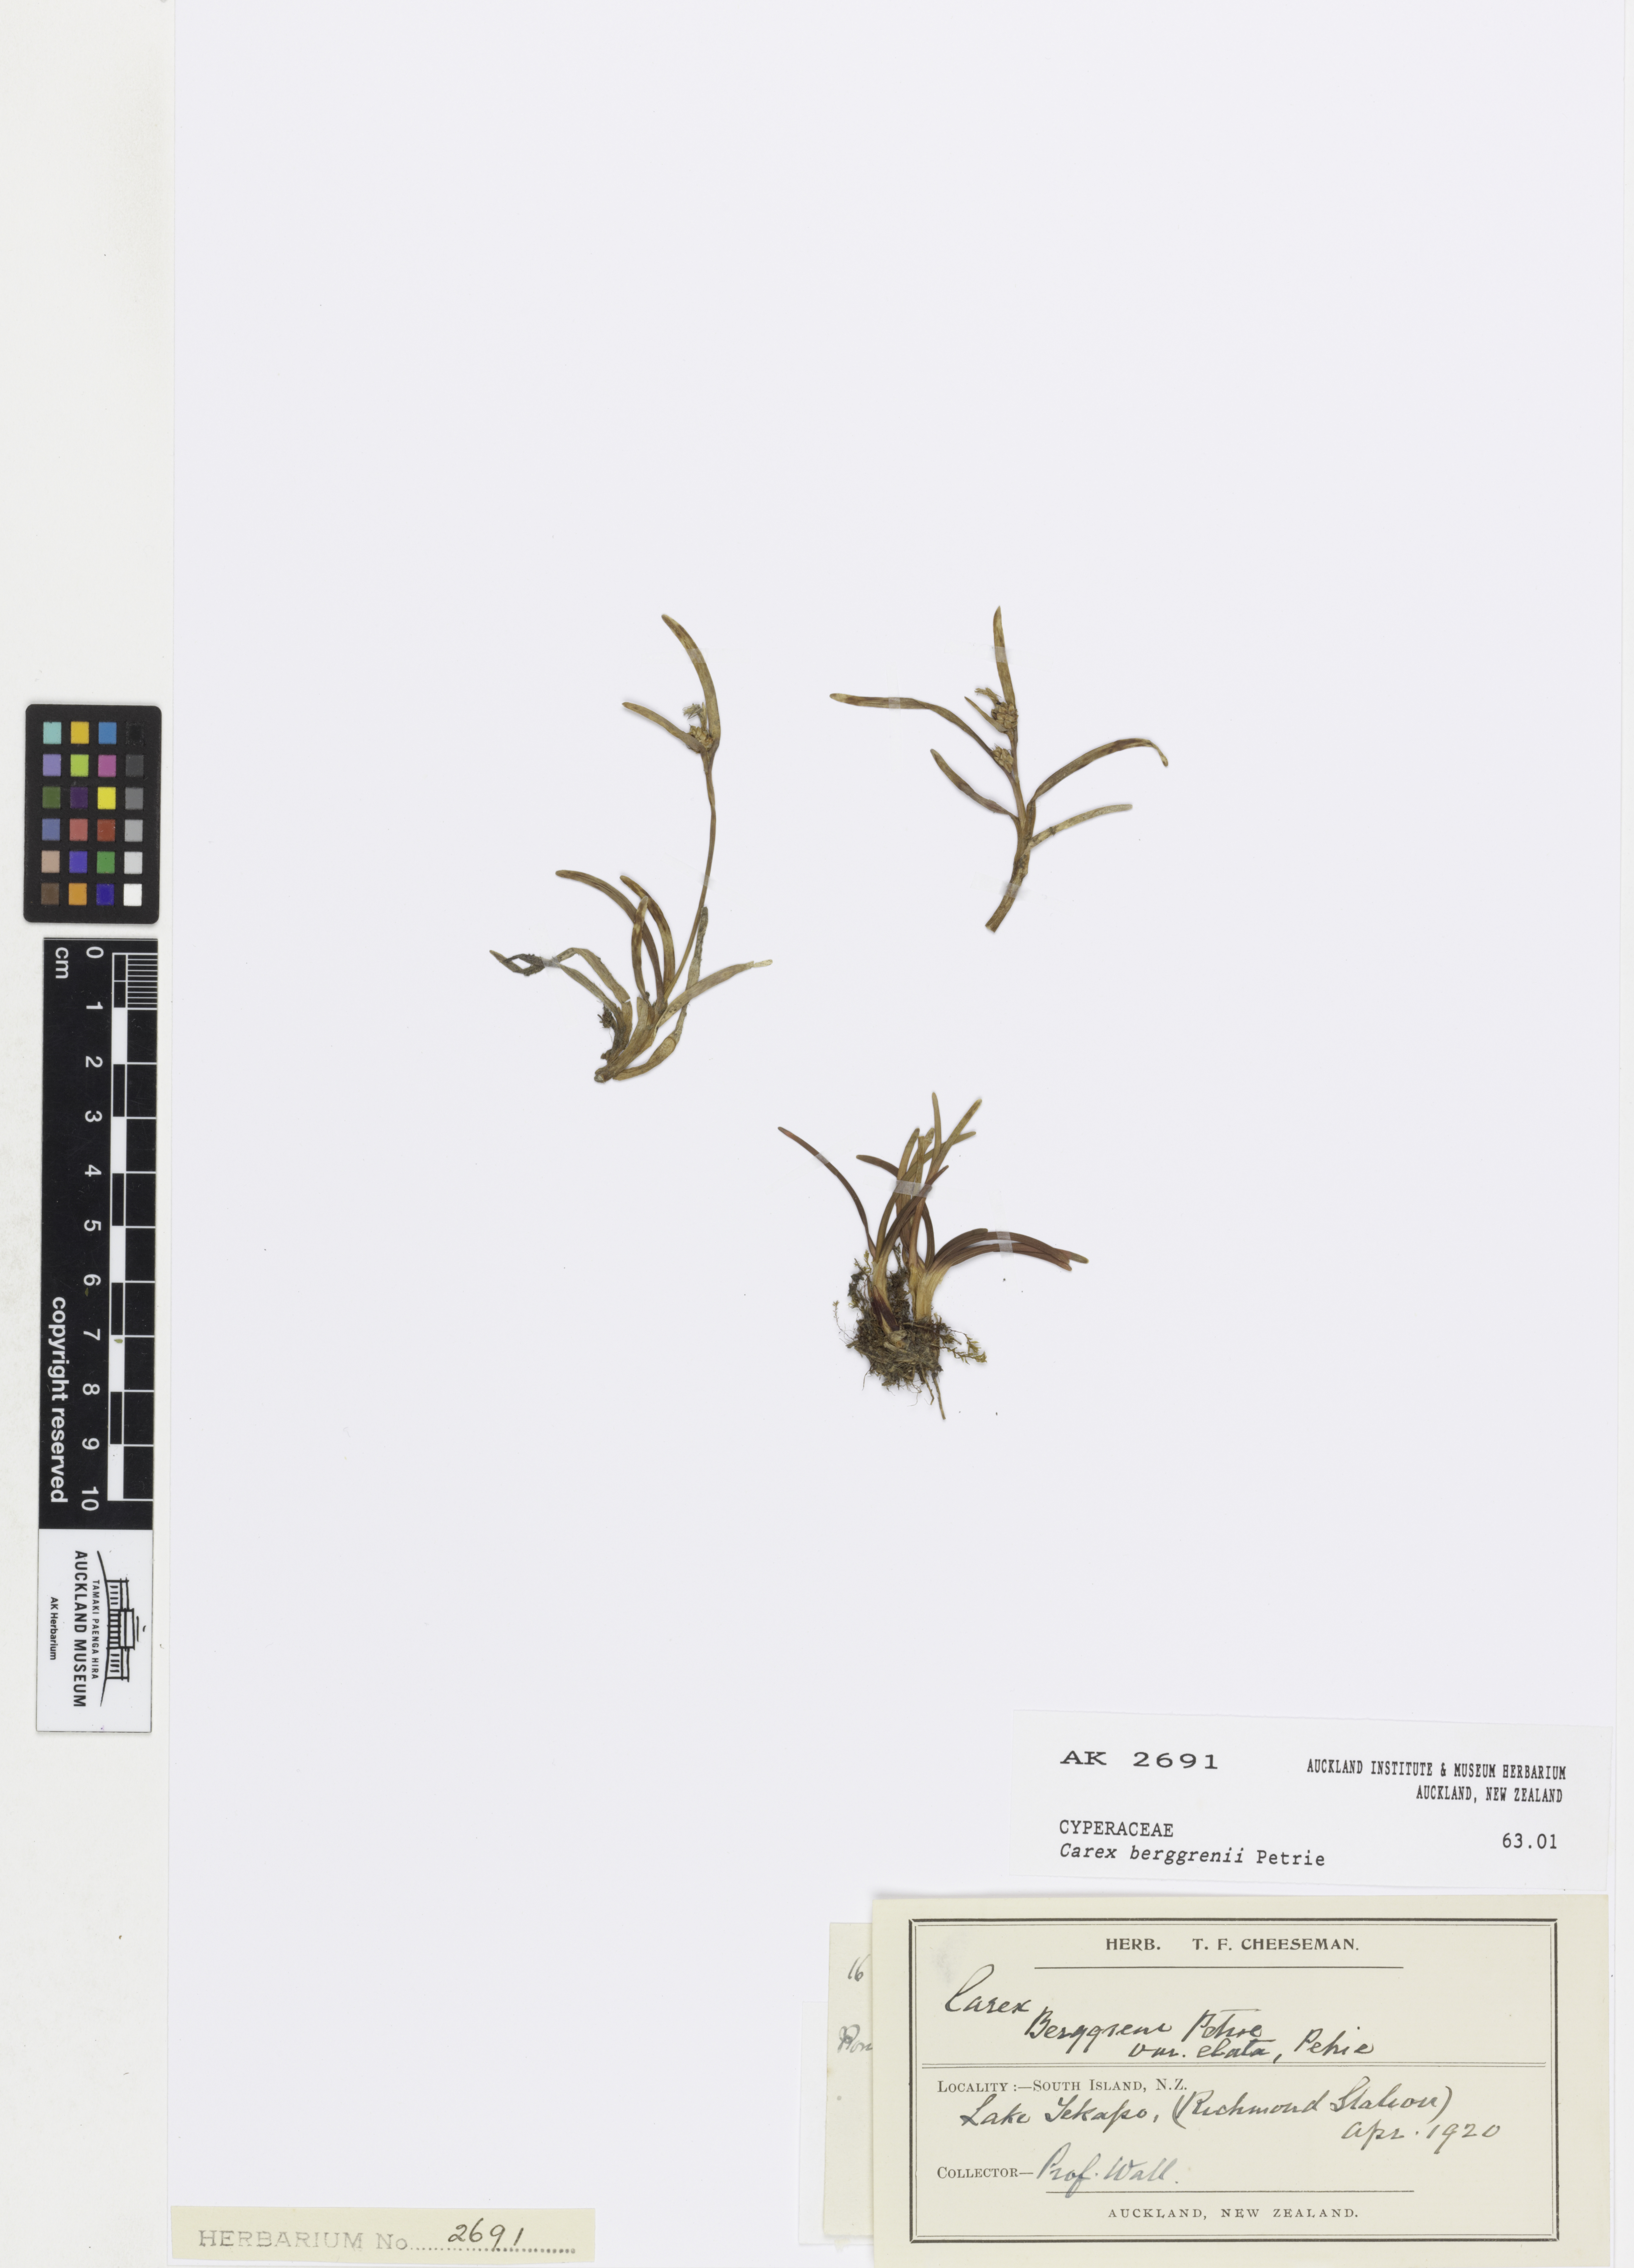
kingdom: Plantae
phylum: Tracheophyta
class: Liliopsida
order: Poales
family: Cyperaceae
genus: Carex
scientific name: Carex talbotii
